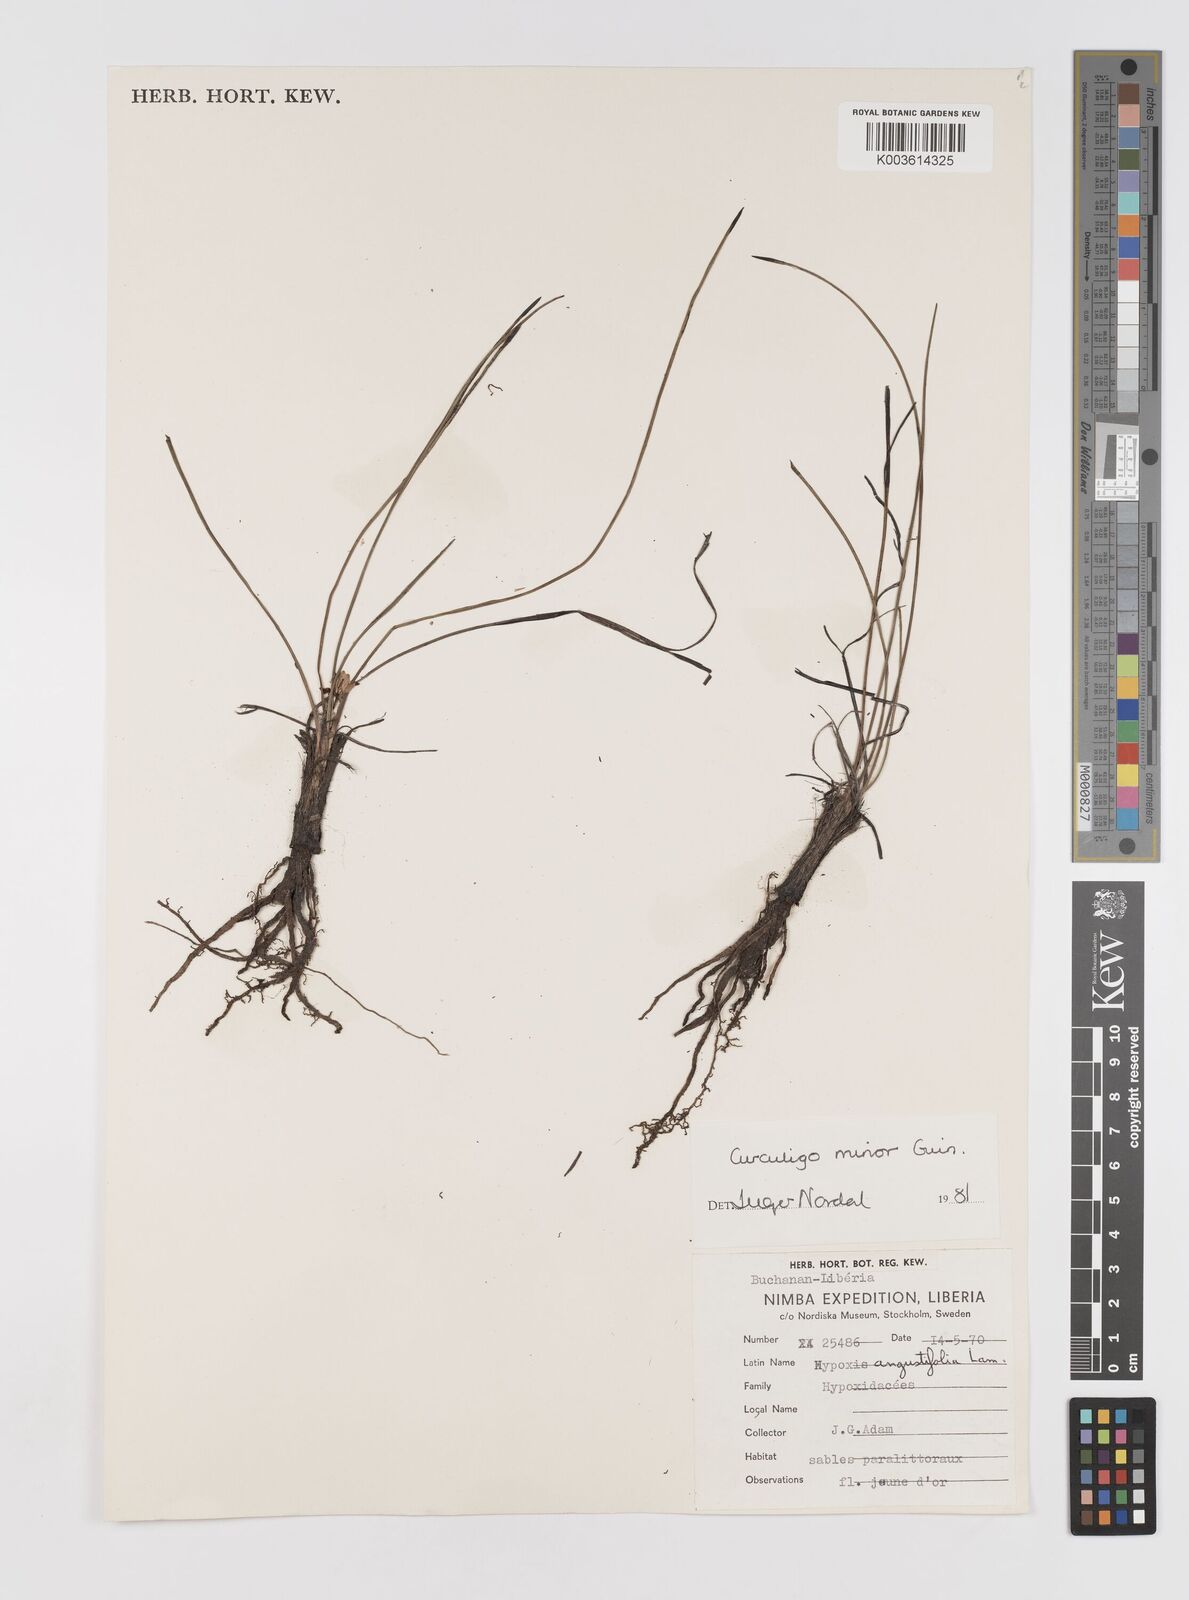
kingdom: Plantae
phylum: Tracheophyta
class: Liliopsida
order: Asparagales
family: Hypoxidaceae
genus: Curculigo
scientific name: Curculigo pilosa
